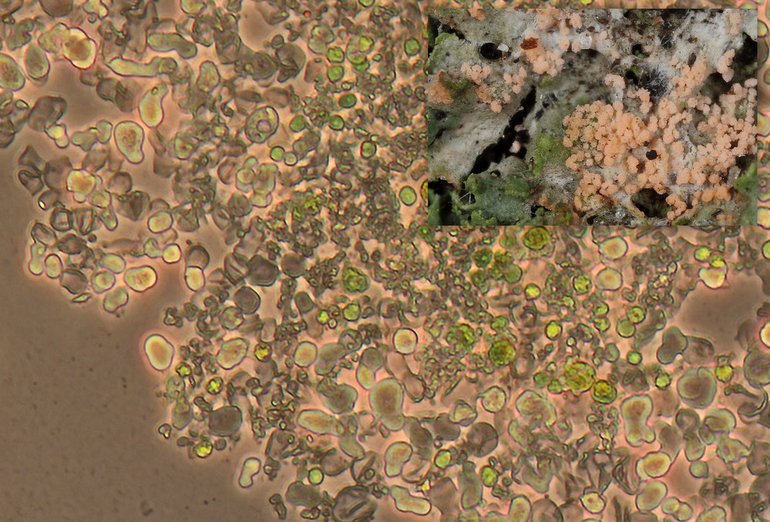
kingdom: Fungi
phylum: Basidiomycota
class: Agaricomycetes
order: Corticiales
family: Corticiaceae
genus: Erythricium
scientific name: Erythricium aurantiacum
